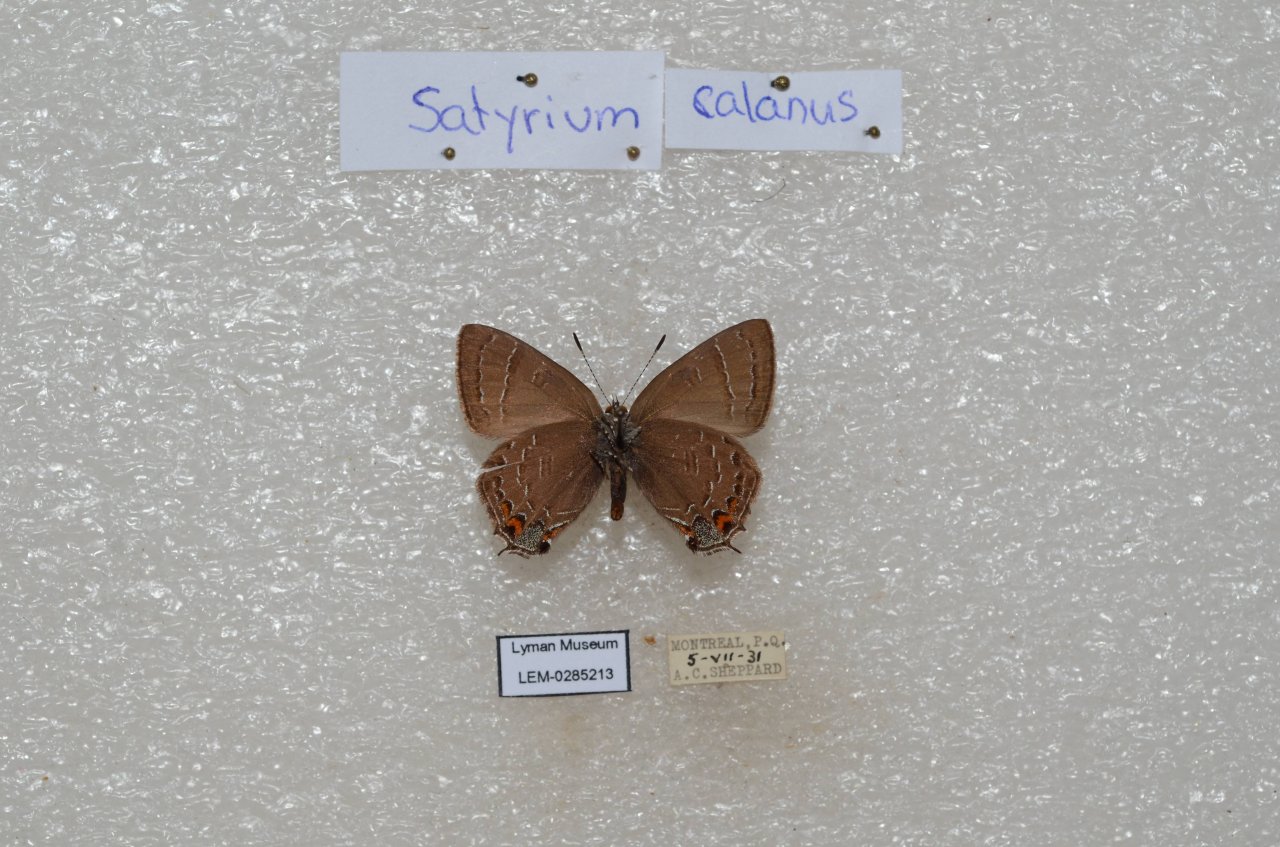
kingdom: Animalia
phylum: Arthropoda
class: Insecta
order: Lepidoptera
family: Lycaenidae
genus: Satyrium
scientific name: Satyrium calanus
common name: Banded Hairstreak
